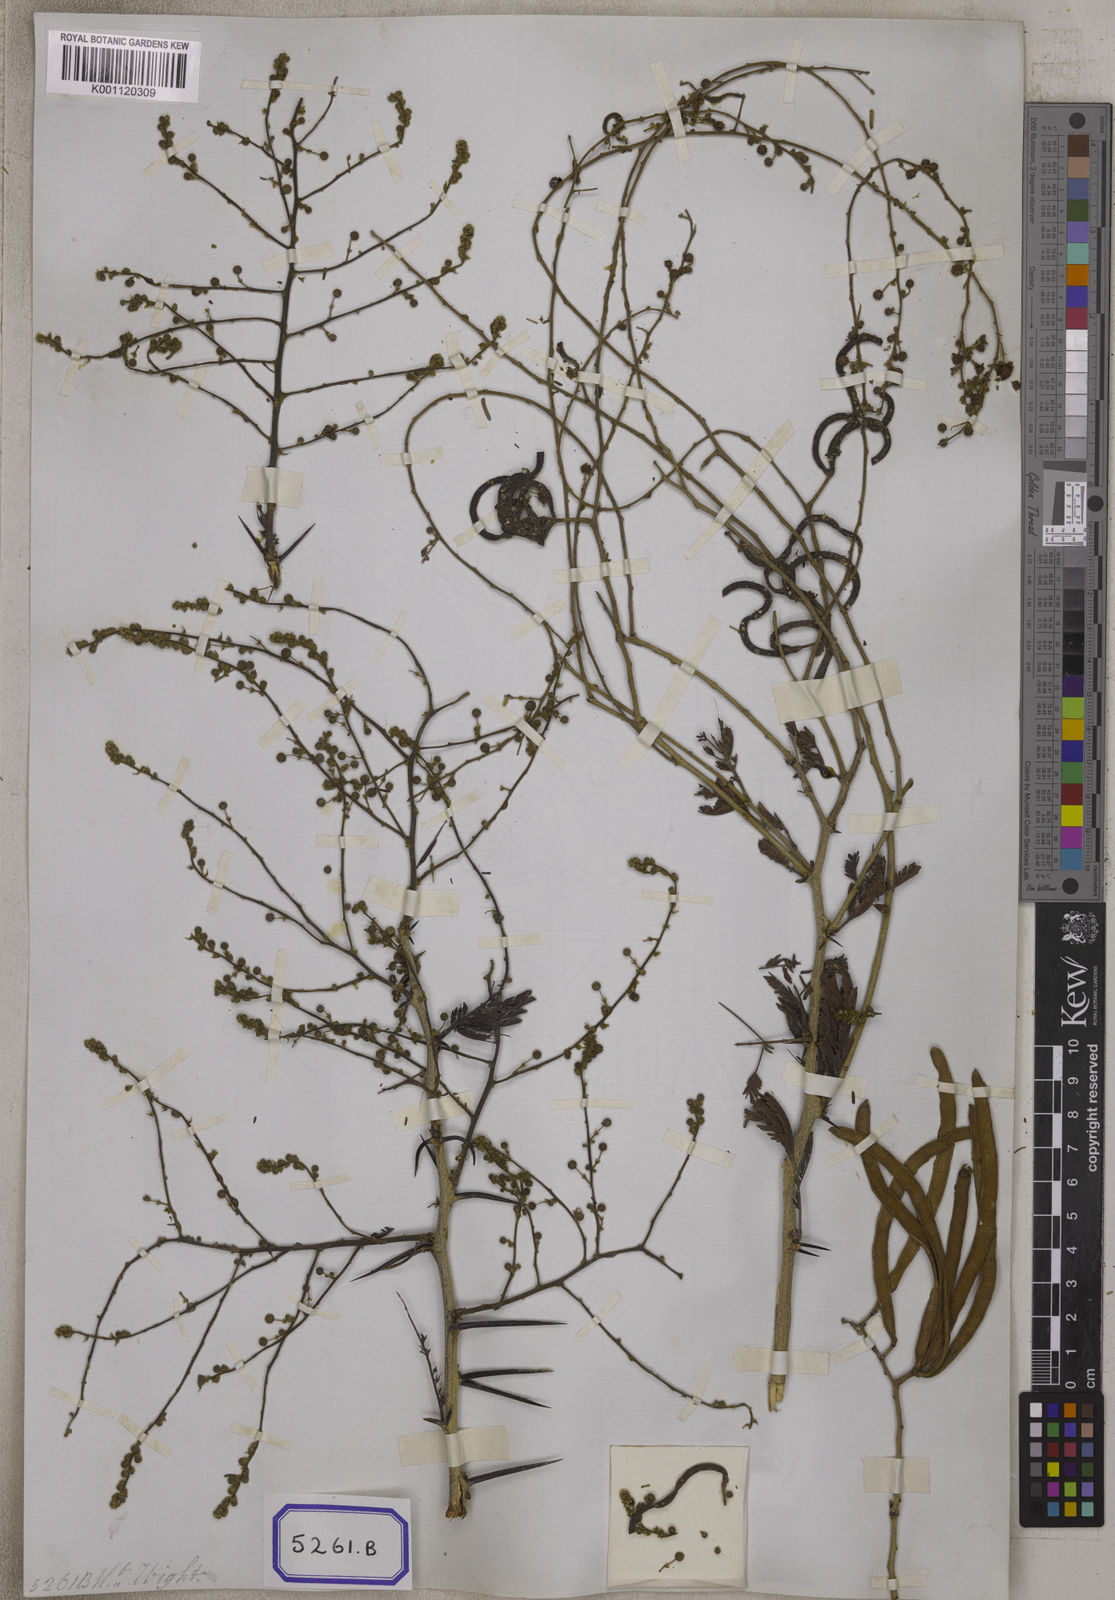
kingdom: Plantae
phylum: Tracheophyta
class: Magnoliopsida
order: Fabales
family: Fabaceae
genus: Vachellia
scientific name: Vachellia leucophloea
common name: Distiller's acacia
